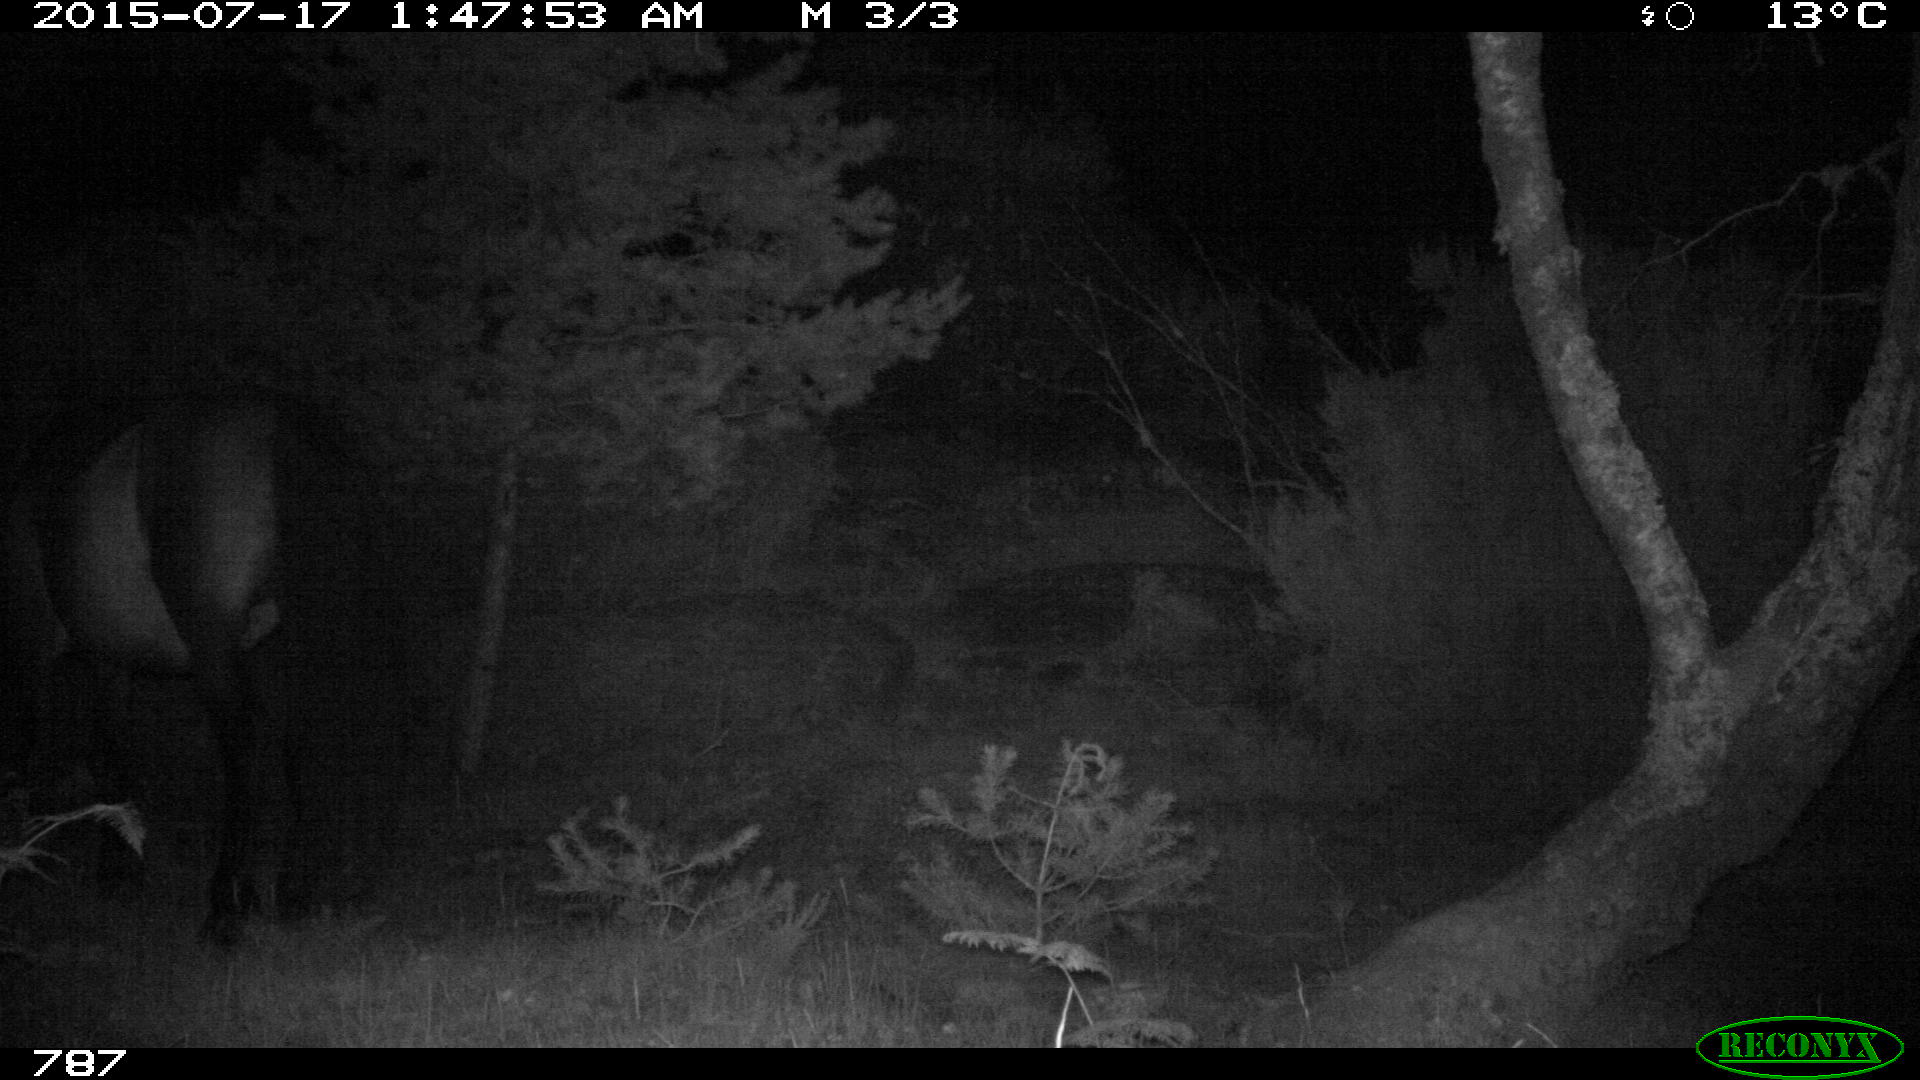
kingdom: Animalia
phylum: Chordata
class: Mammalia
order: Perissodactyla
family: Equidae
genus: Equus
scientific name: Equus caballus
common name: Horse
